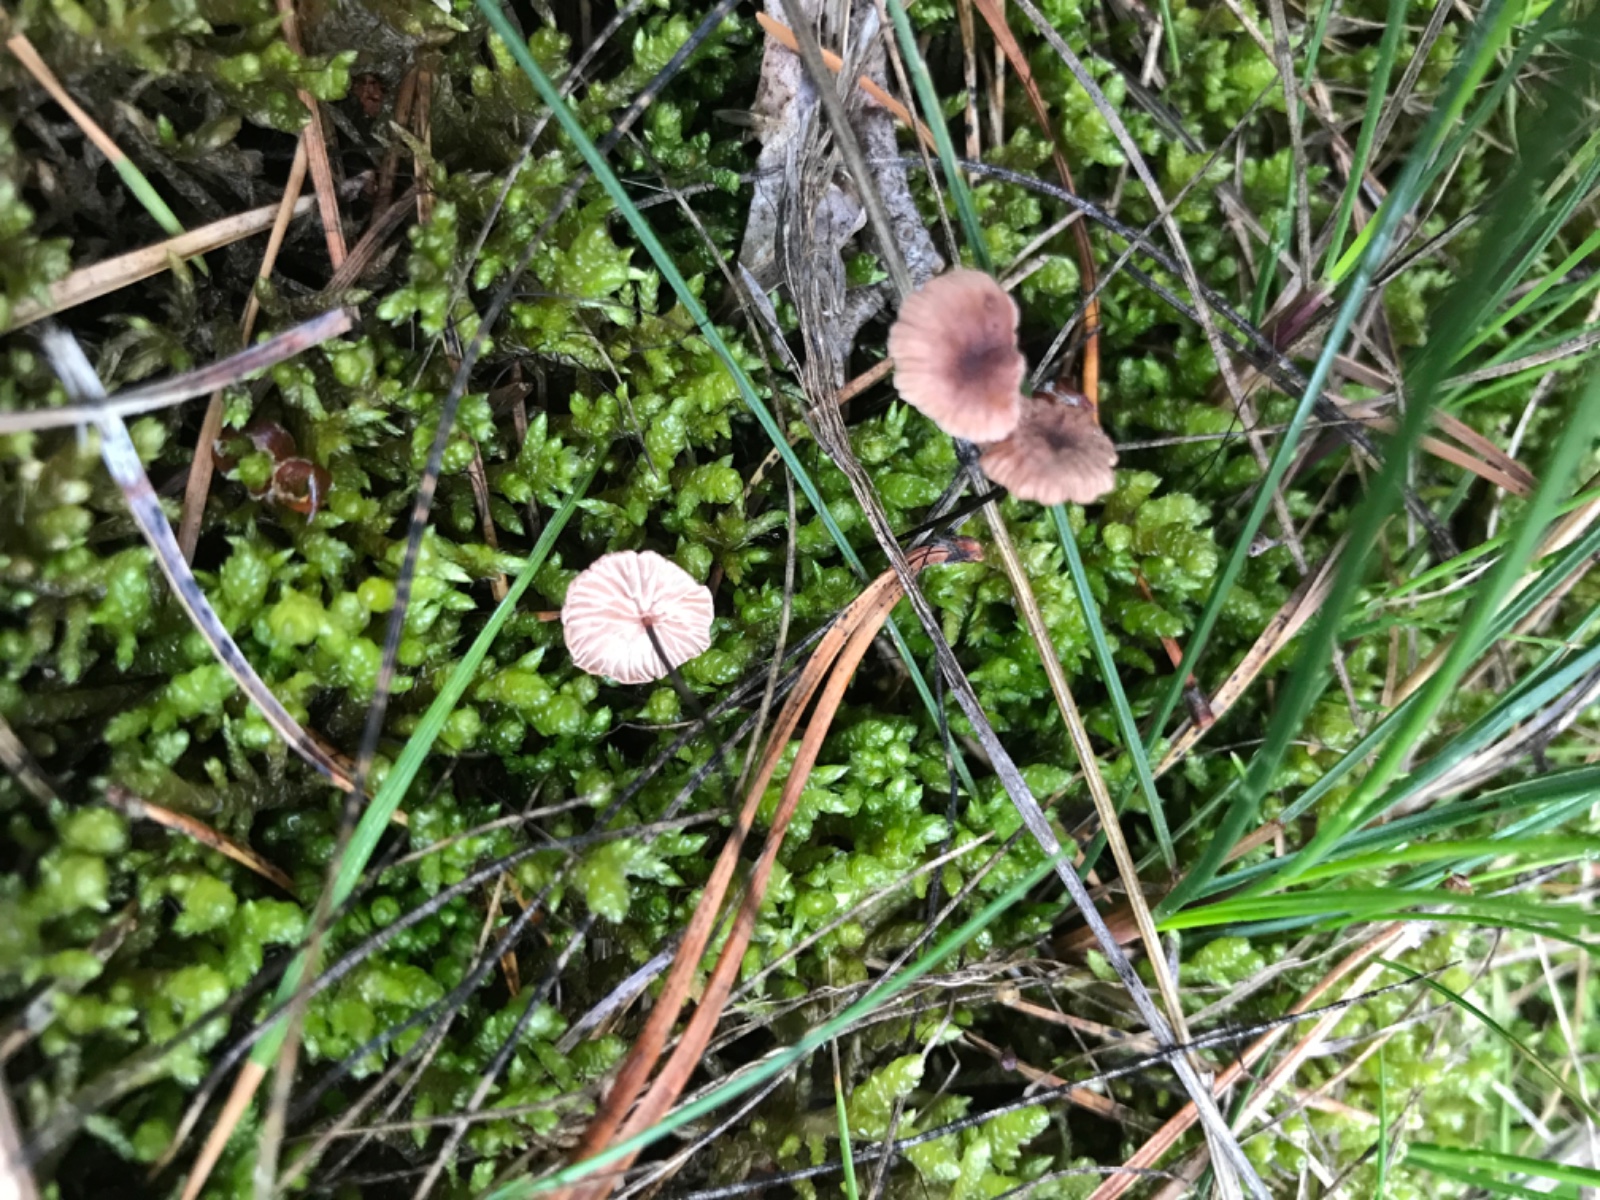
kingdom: Fungi
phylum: Basidiomycota
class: Agaricomycetes
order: Agaricales
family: Omphalotaceae
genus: Gymnopus
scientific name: Gymnopus androsaceus
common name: trådstokket fladhat
